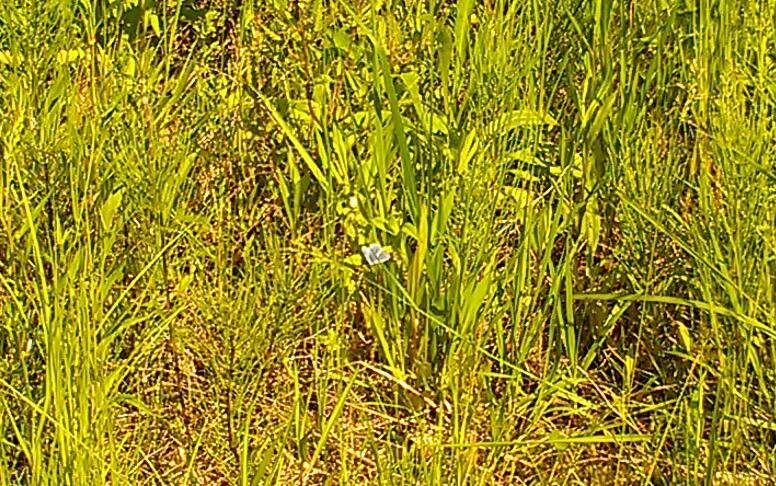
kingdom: Animalia
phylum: Arthropoda
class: Insecta
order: Lepidoptera
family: Lycaenidae
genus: Glaucopsyche
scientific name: Glaucopsyche lygdamus
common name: Silvery Blue
